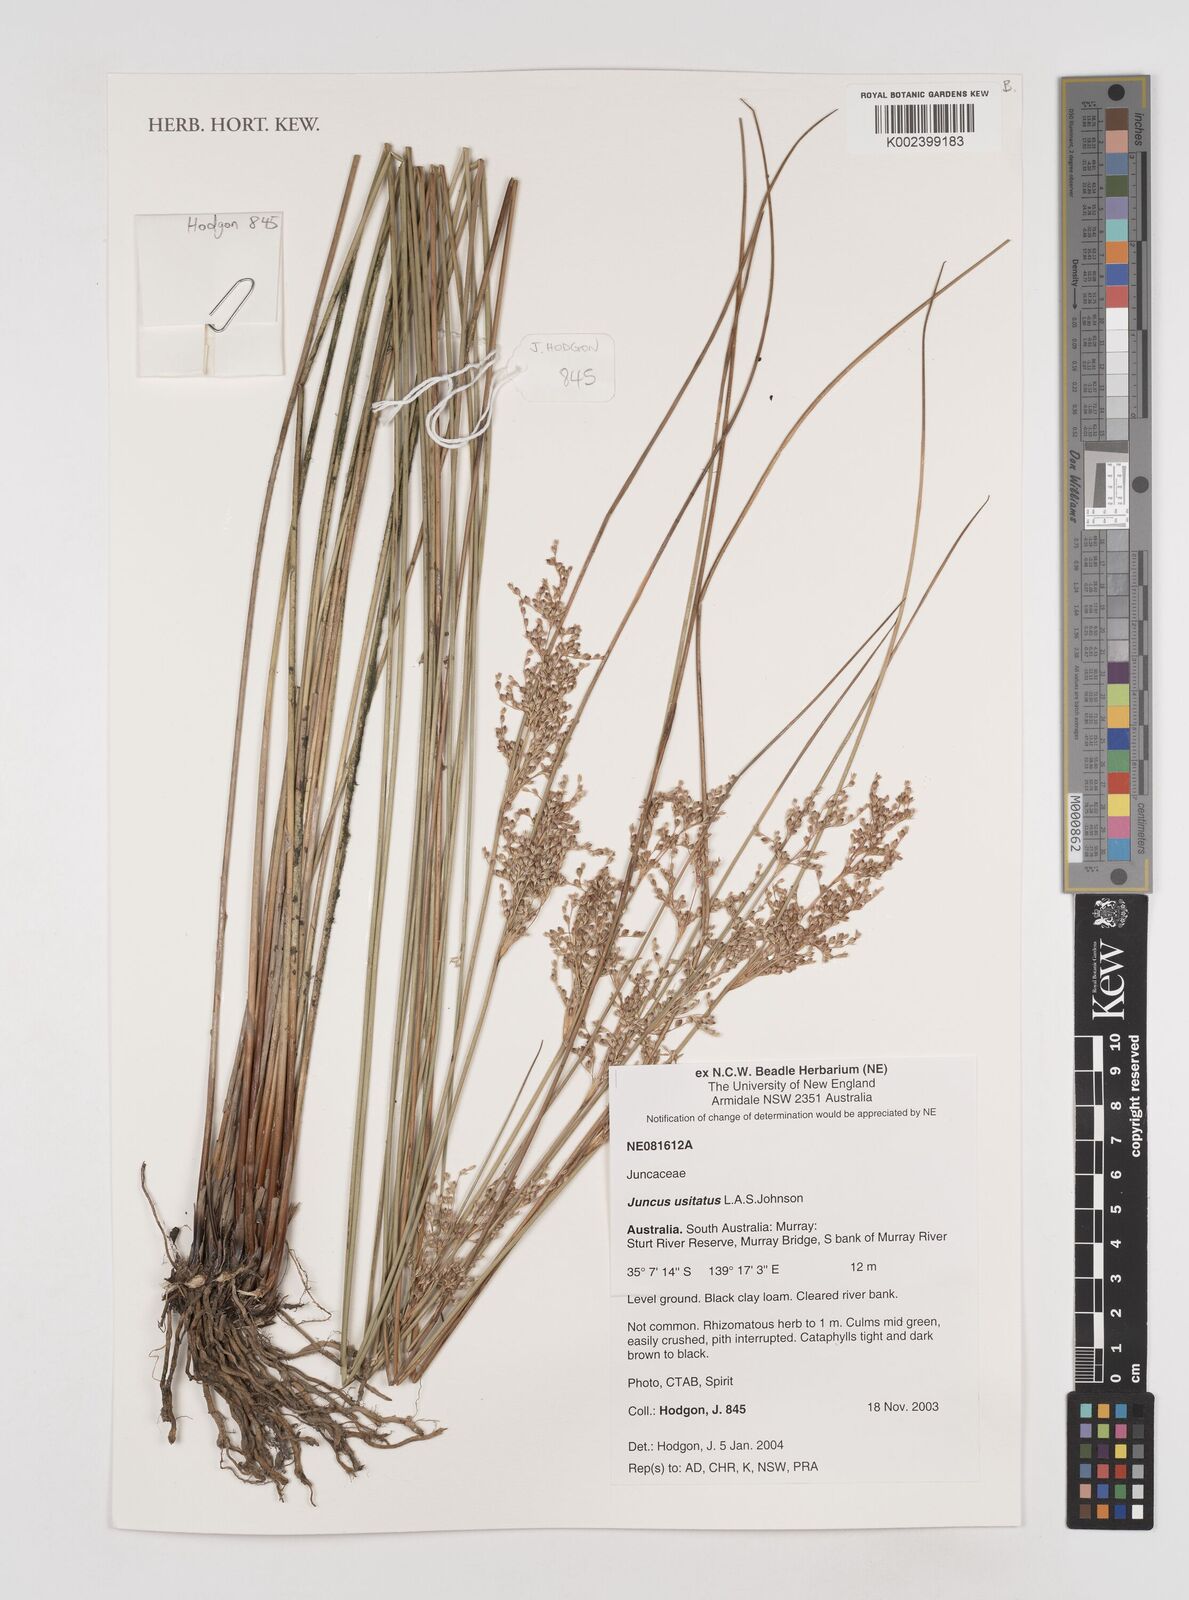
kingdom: Plantae
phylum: Tracheophyta
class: Liliopsida
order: Poales
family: Juncaceae
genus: Juncus
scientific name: Juncus usitatus
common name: Rush
